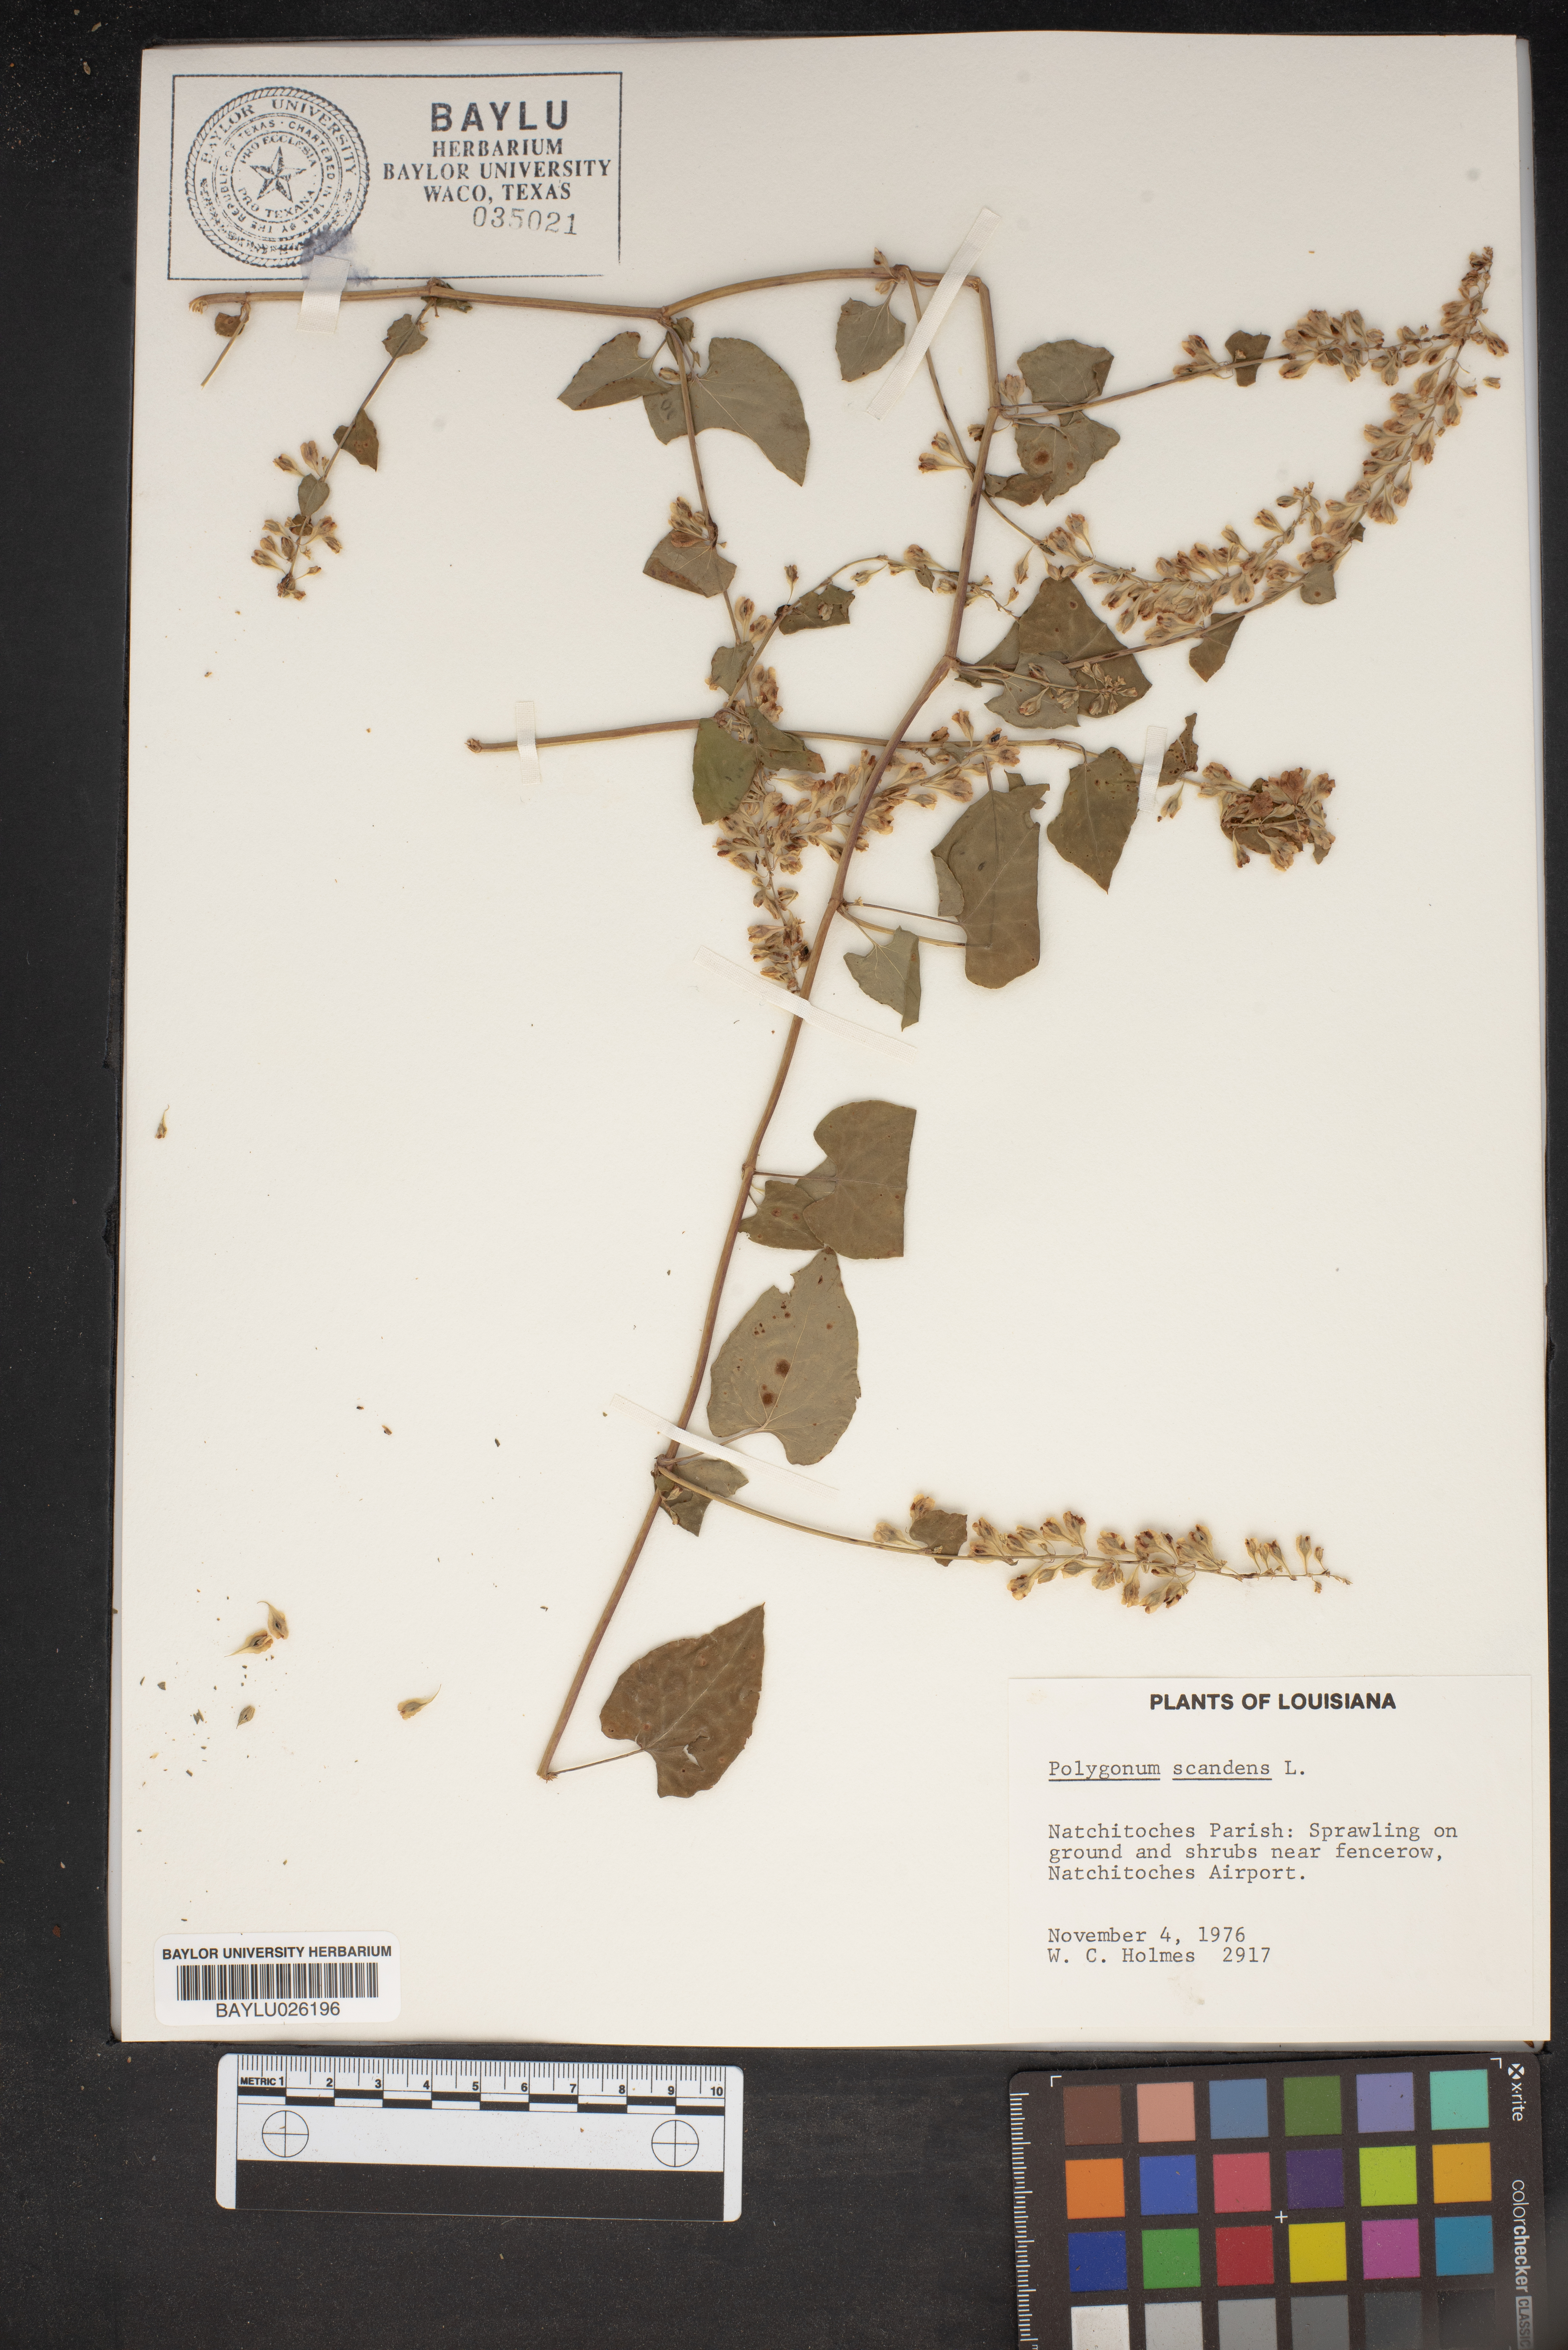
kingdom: Plantae
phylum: Tracheophyta
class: Magnoliopsida
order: Caryophyllales
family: Polygonaceae
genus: Fallopia
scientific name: Fallopia scandens
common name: Climbing false buckwheat
